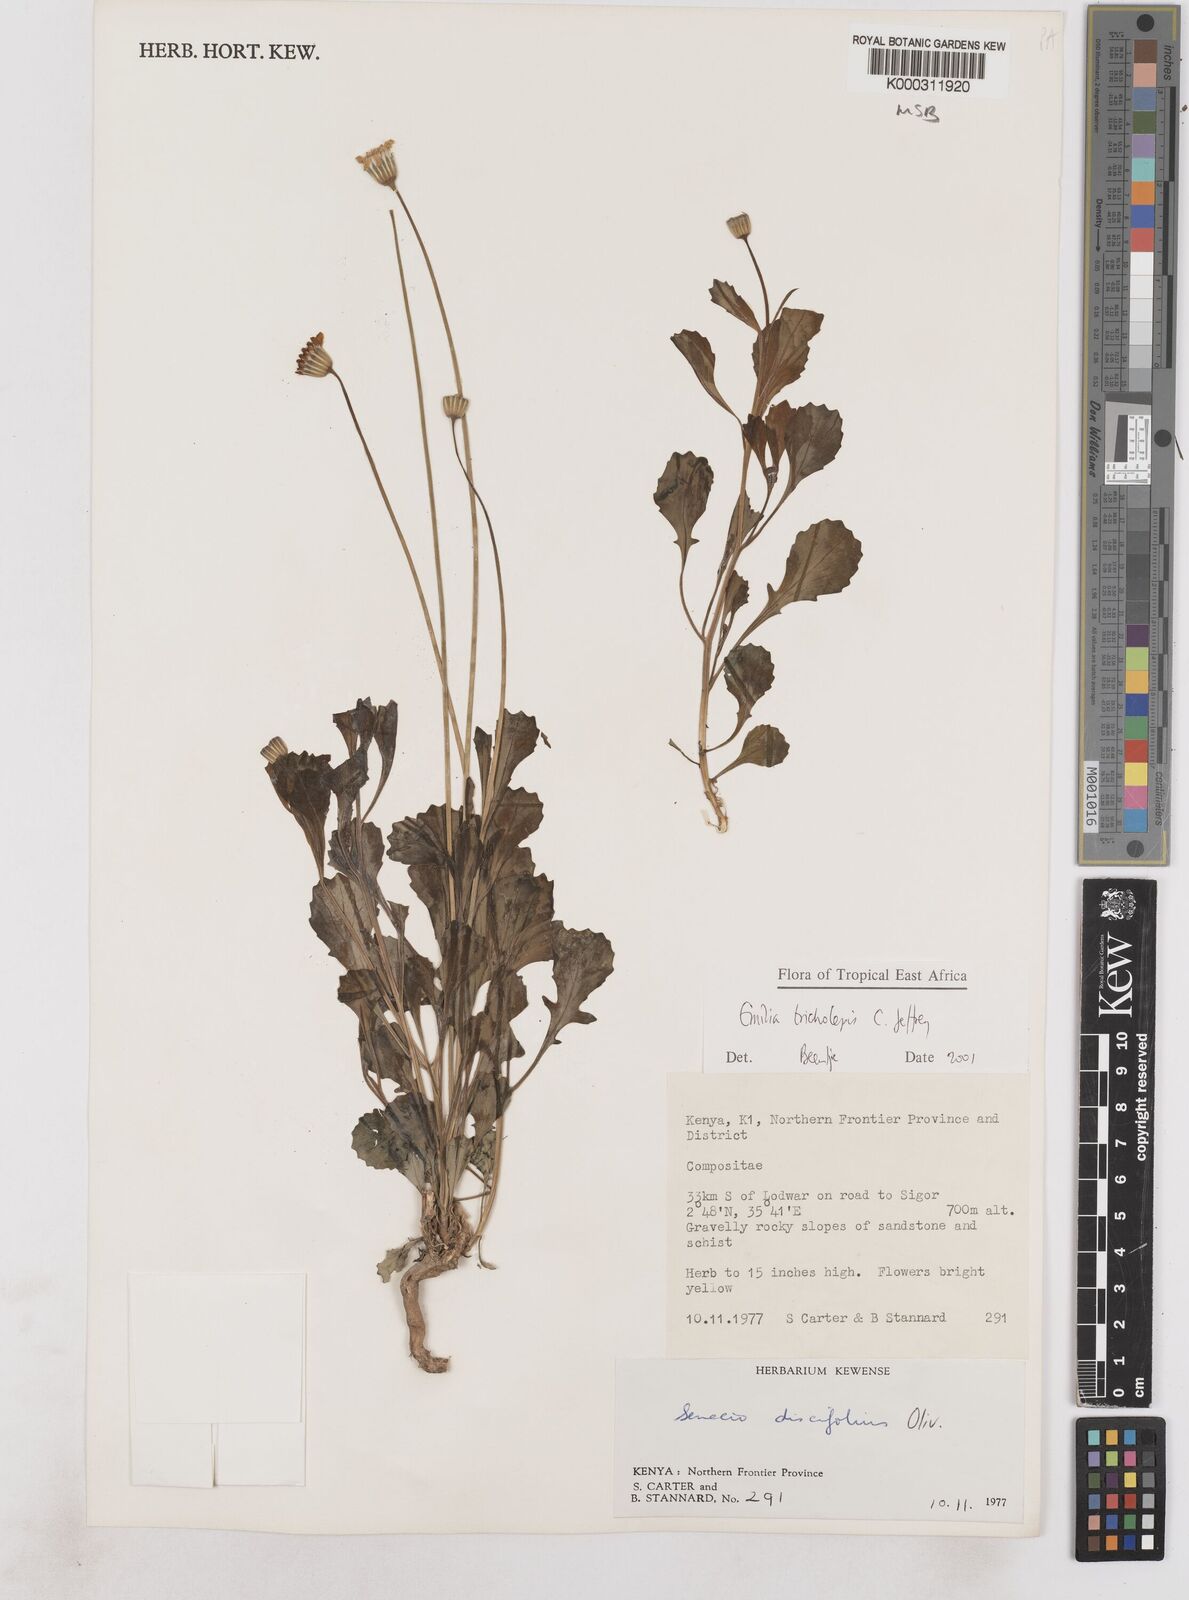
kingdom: Plantae
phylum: Tracheophyta
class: Magnoliopsida
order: Asterales
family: Asteraceae
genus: Emilia
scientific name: Emilia tricholepis
